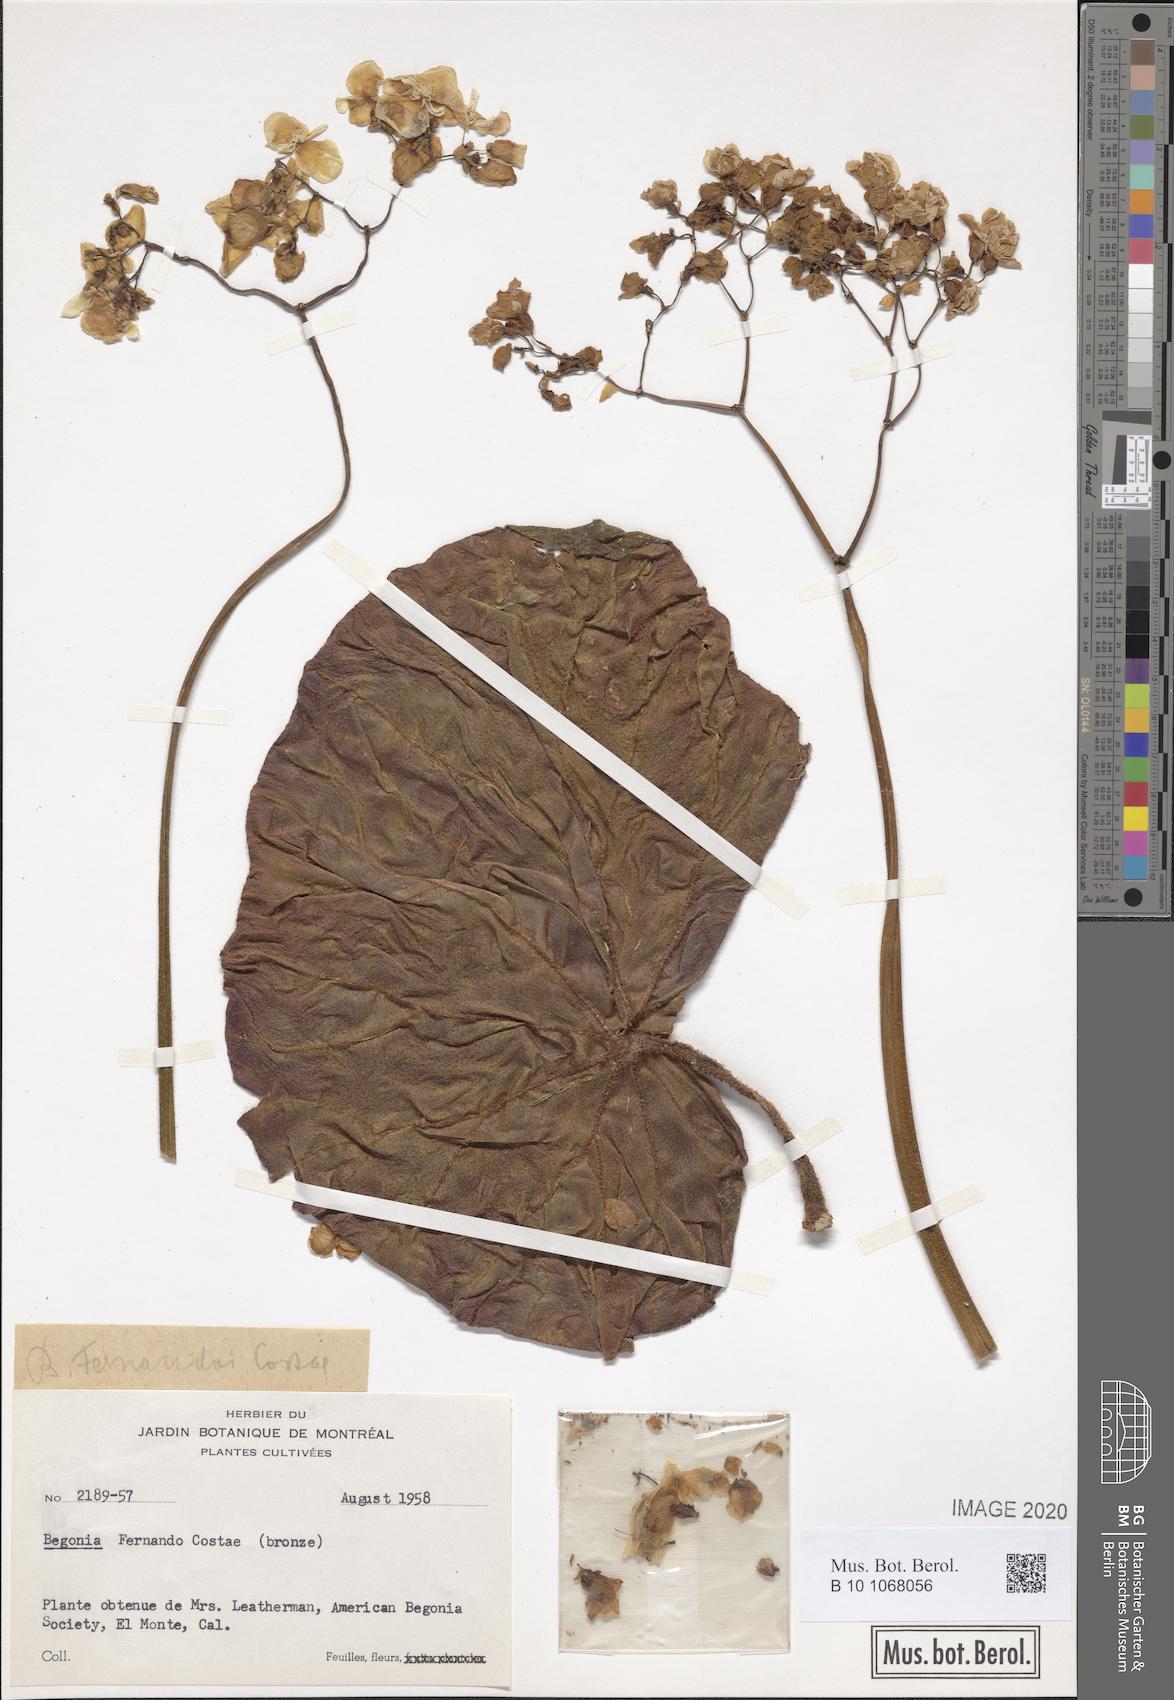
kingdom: Plantae
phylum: Tracheophyta
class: Magnoliopsida
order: Cucurbitales
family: Begoniaceae
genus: Begonia
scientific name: Begonia fernando-costae
